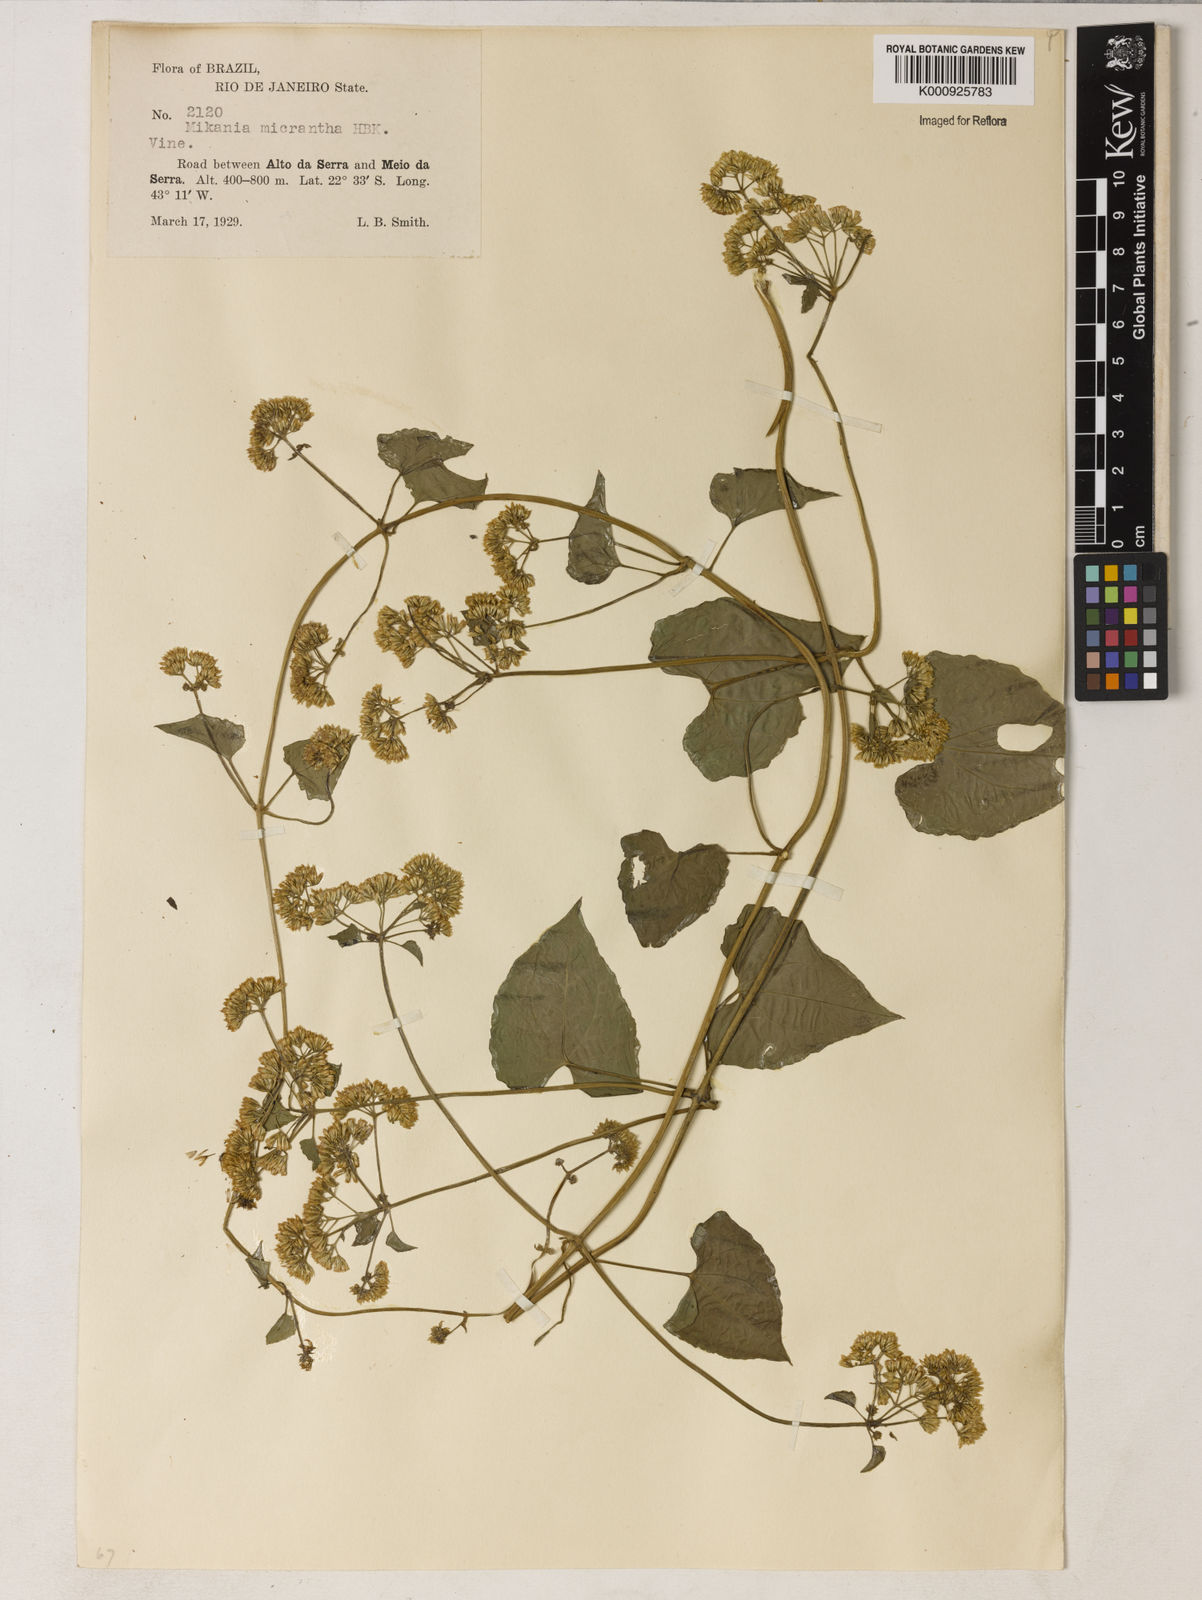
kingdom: Plantae
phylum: Tracheophyta
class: Magnoliopsida
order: Asterales
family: Asteraceae
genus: Mikania
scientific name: Mikania
